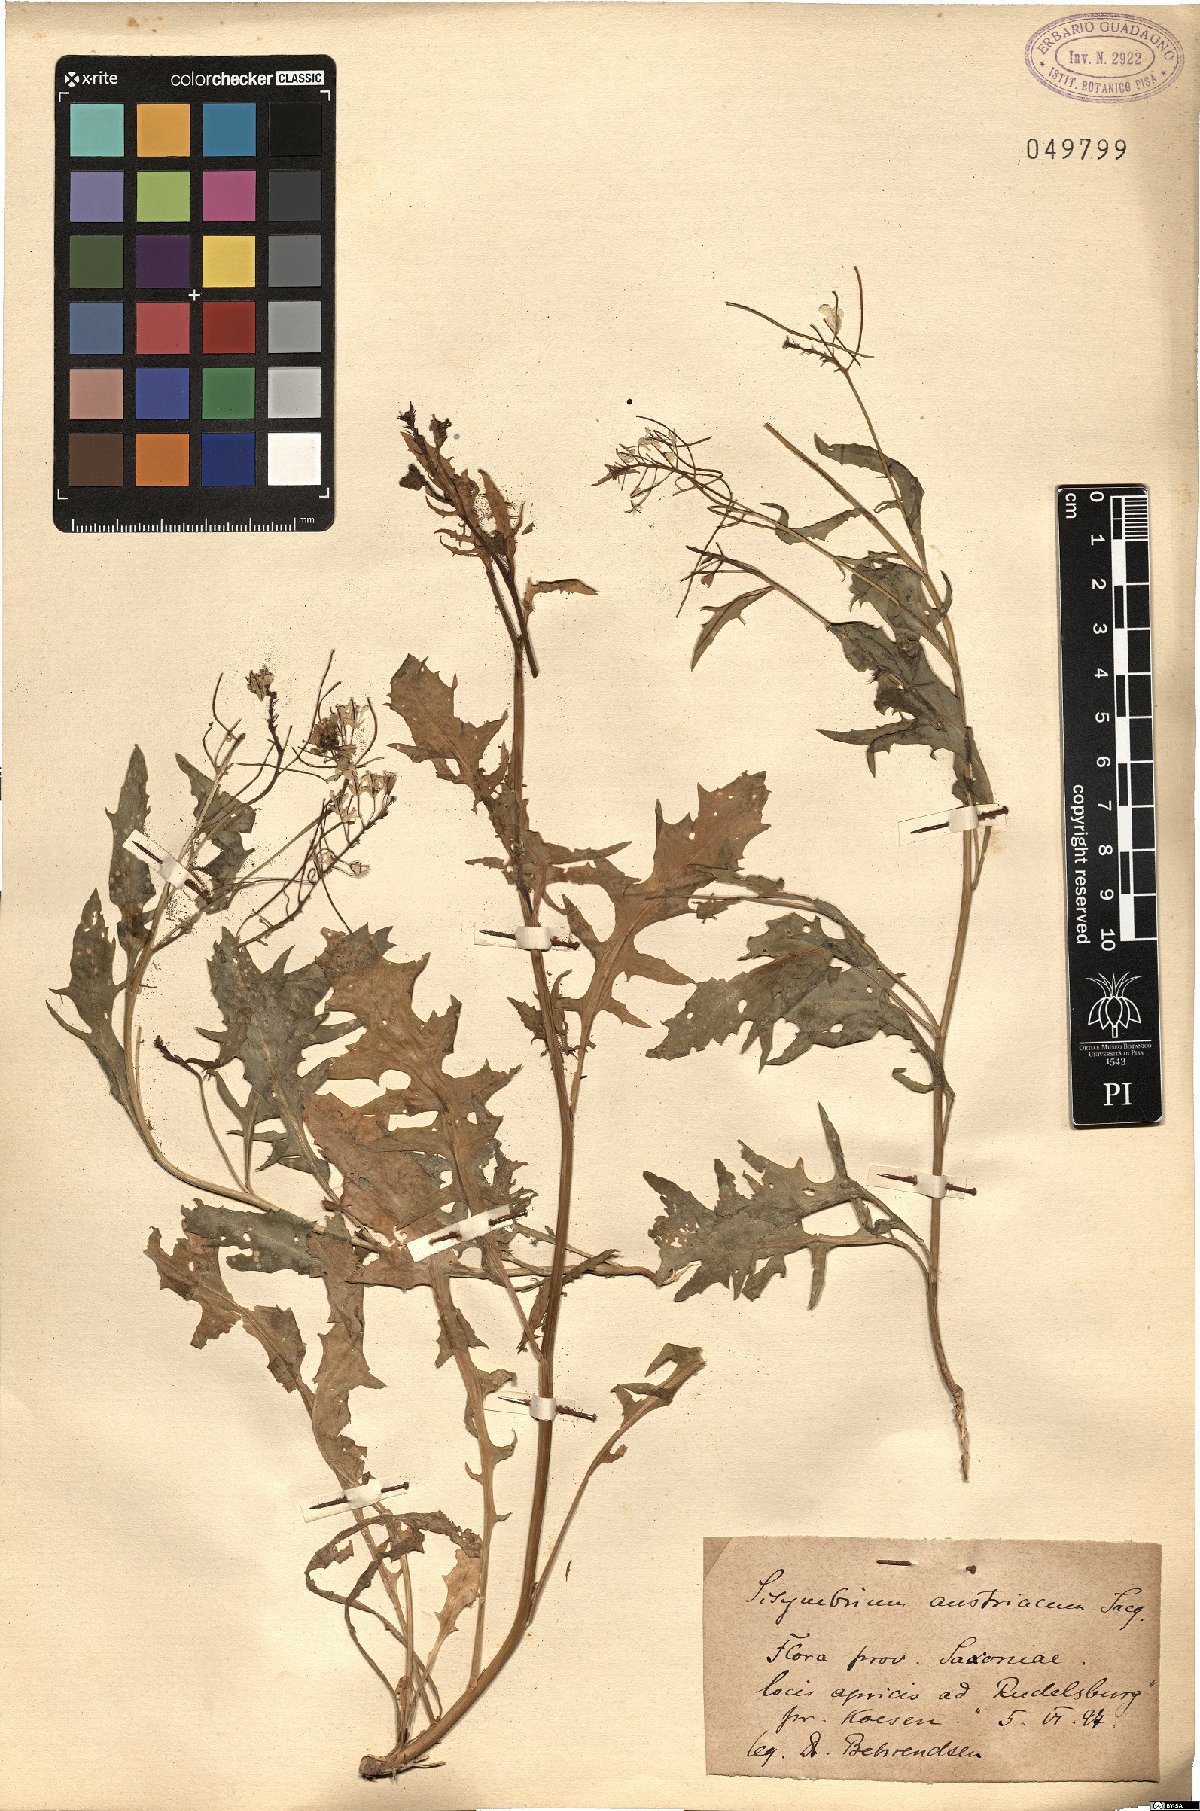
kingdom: Plantae
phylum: Tracheophyta
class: Magnoliopsida
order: Brassicales
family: Brassicaceae
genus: Sisymbrium
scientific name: Sisymbrium austriacum
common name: Jeweled rocket
